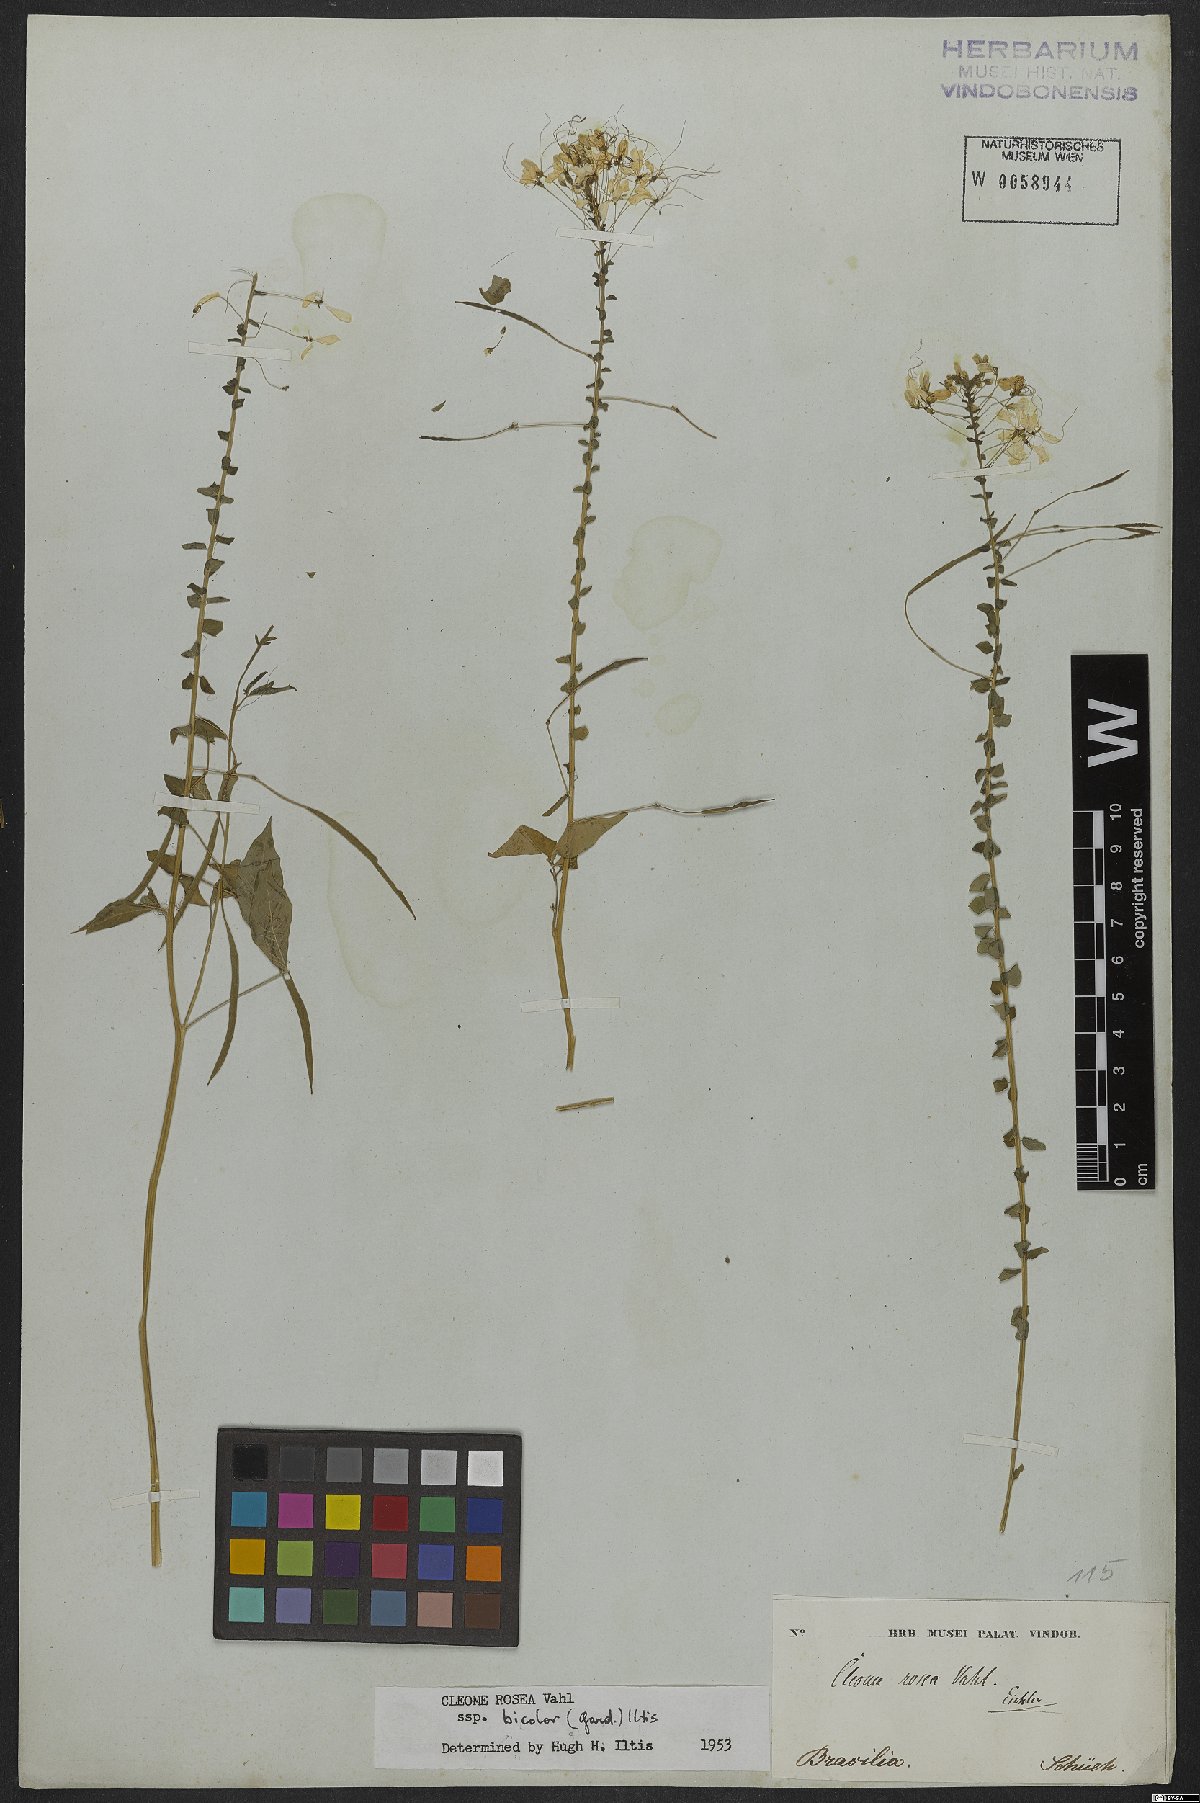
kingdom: Plantae
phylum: Tracheophyta
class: Magnoliopsida
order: Brassicales
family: Cleomaceae
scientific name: Cleomaceae
